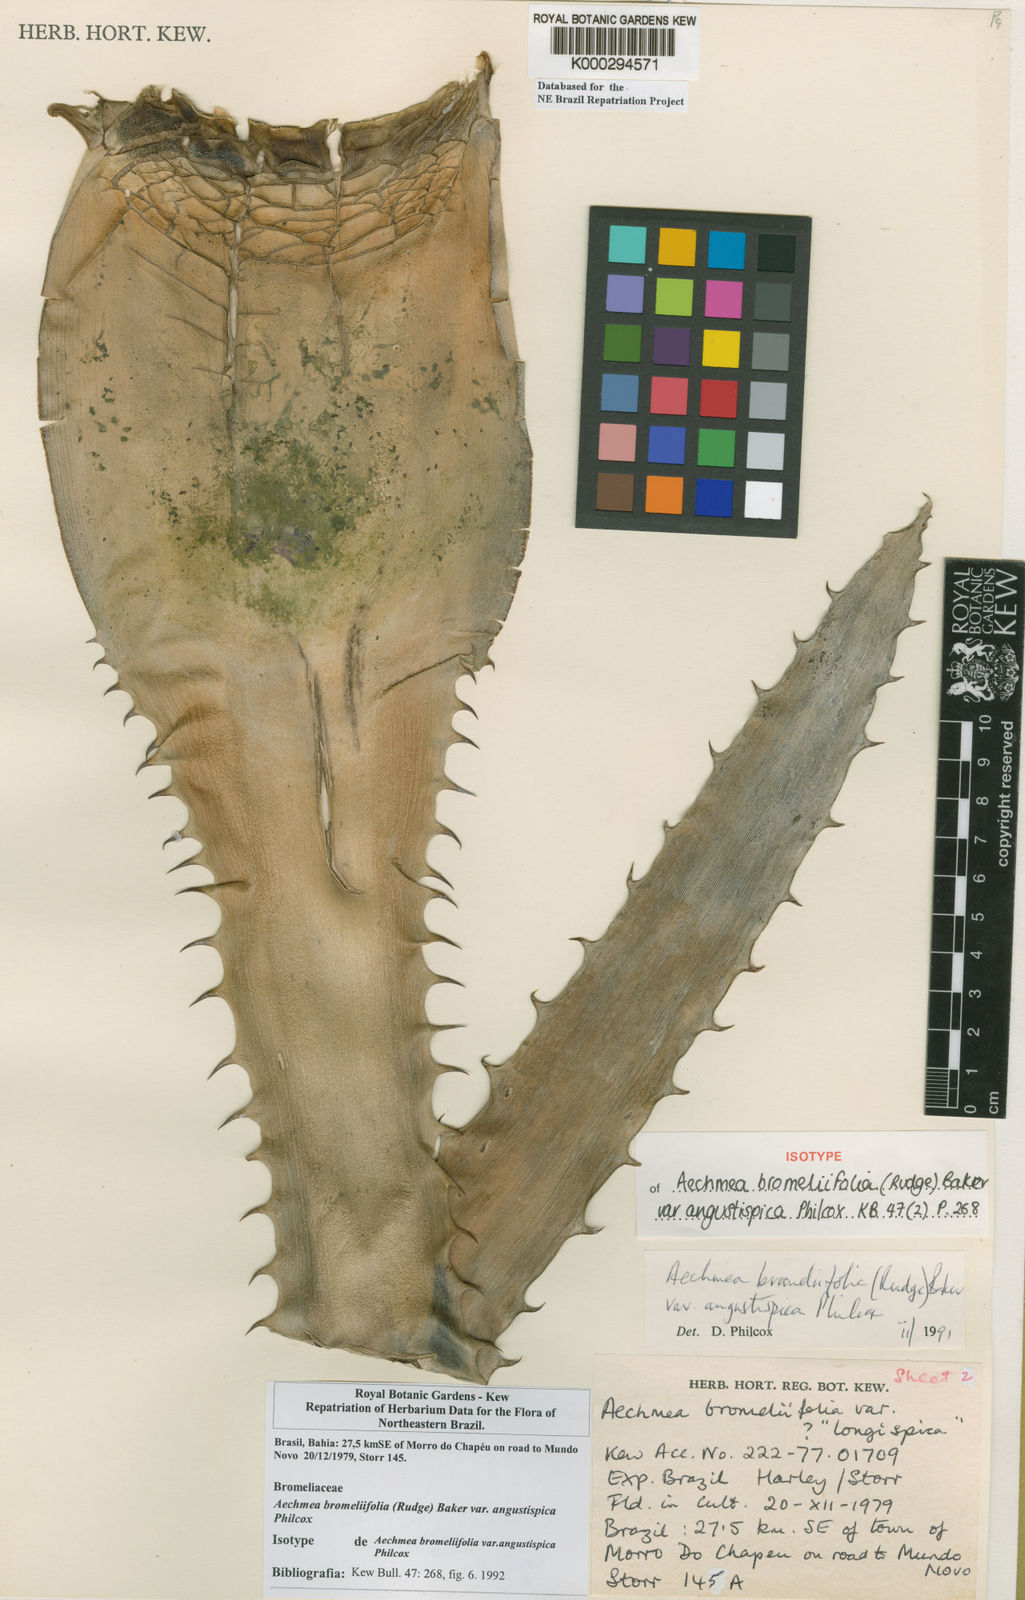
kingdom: Plantae
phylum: Tracheophyta
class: Liliopsida
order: Poales
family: Bromeliaceae
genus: Aechmea
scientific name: Aechmea bromeliifolia
